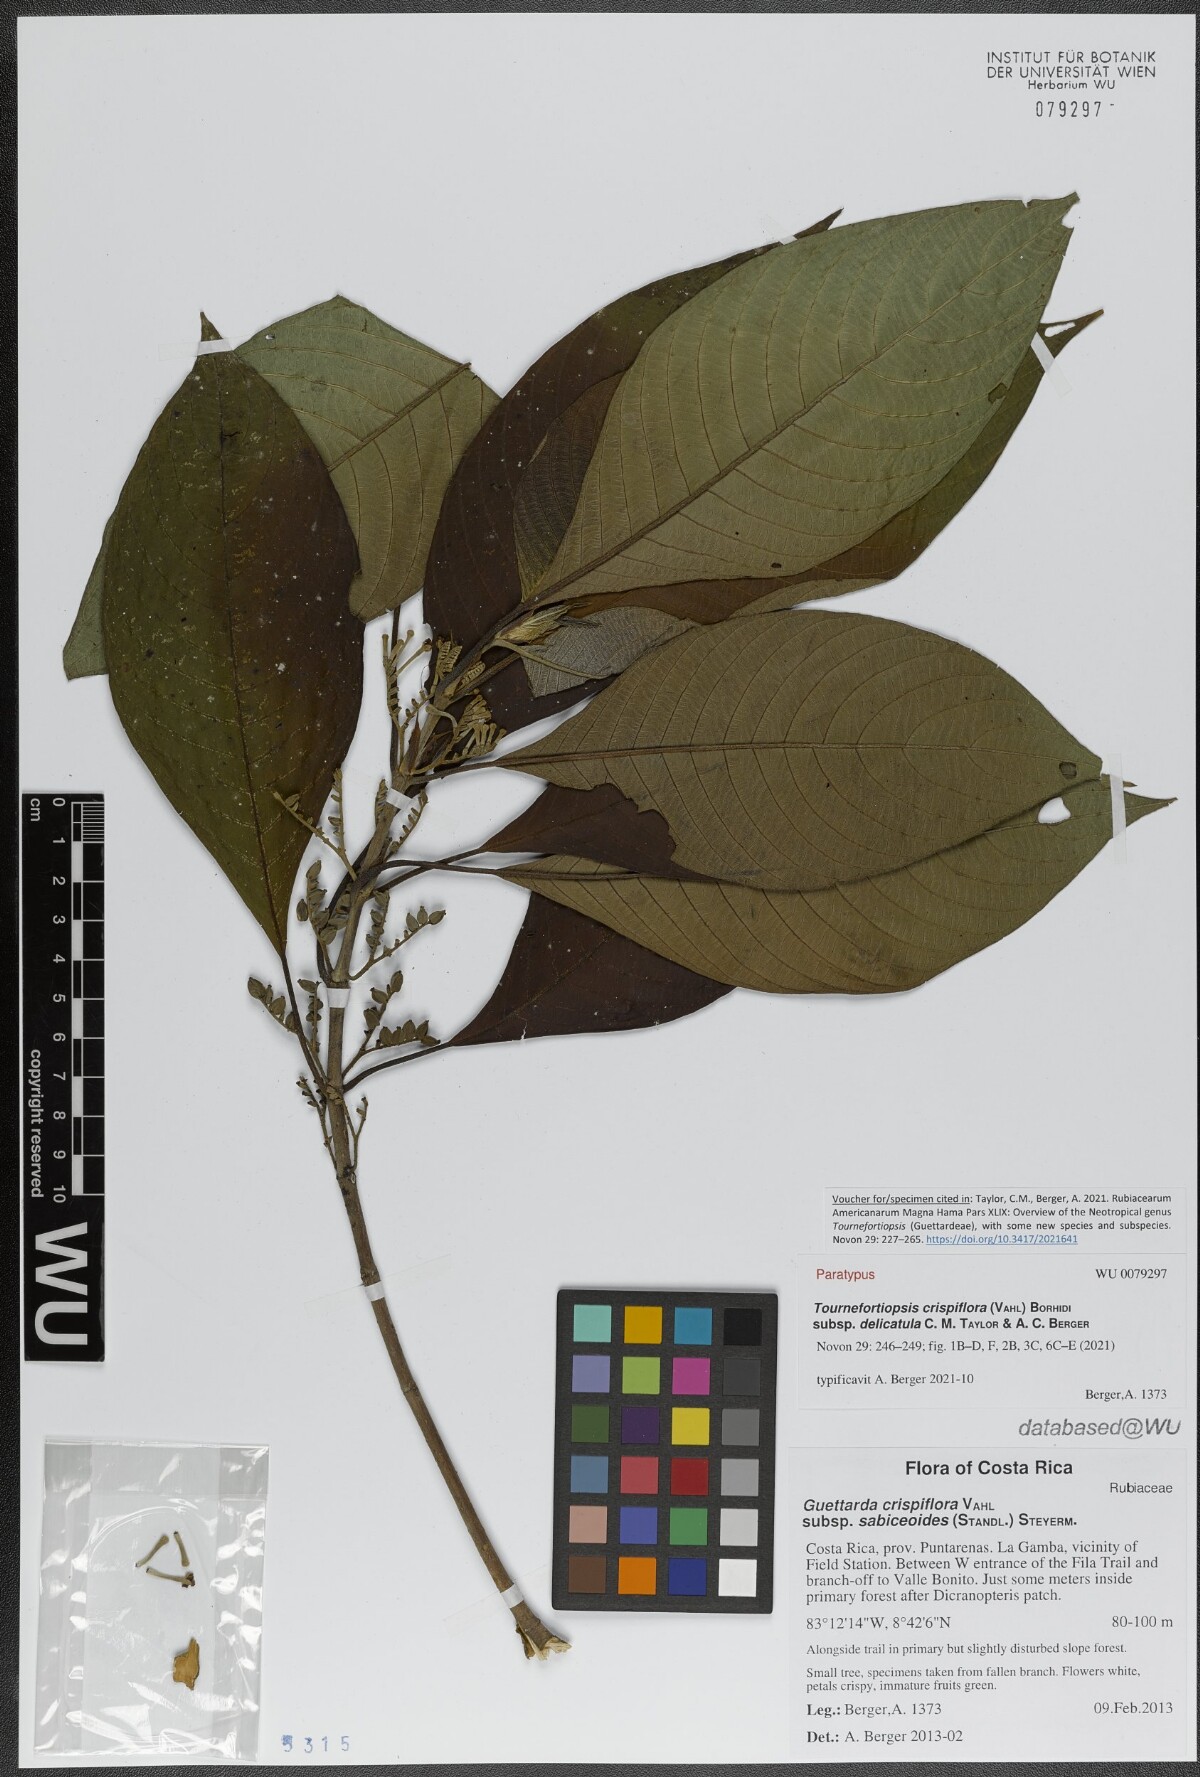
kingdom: Plantae
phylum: Tracheophyta
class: Magnoliopsida
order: Gentianales
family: Rubiaceae
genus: Tournefortiopsis
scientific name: Tournefortiopsis crispiflora
